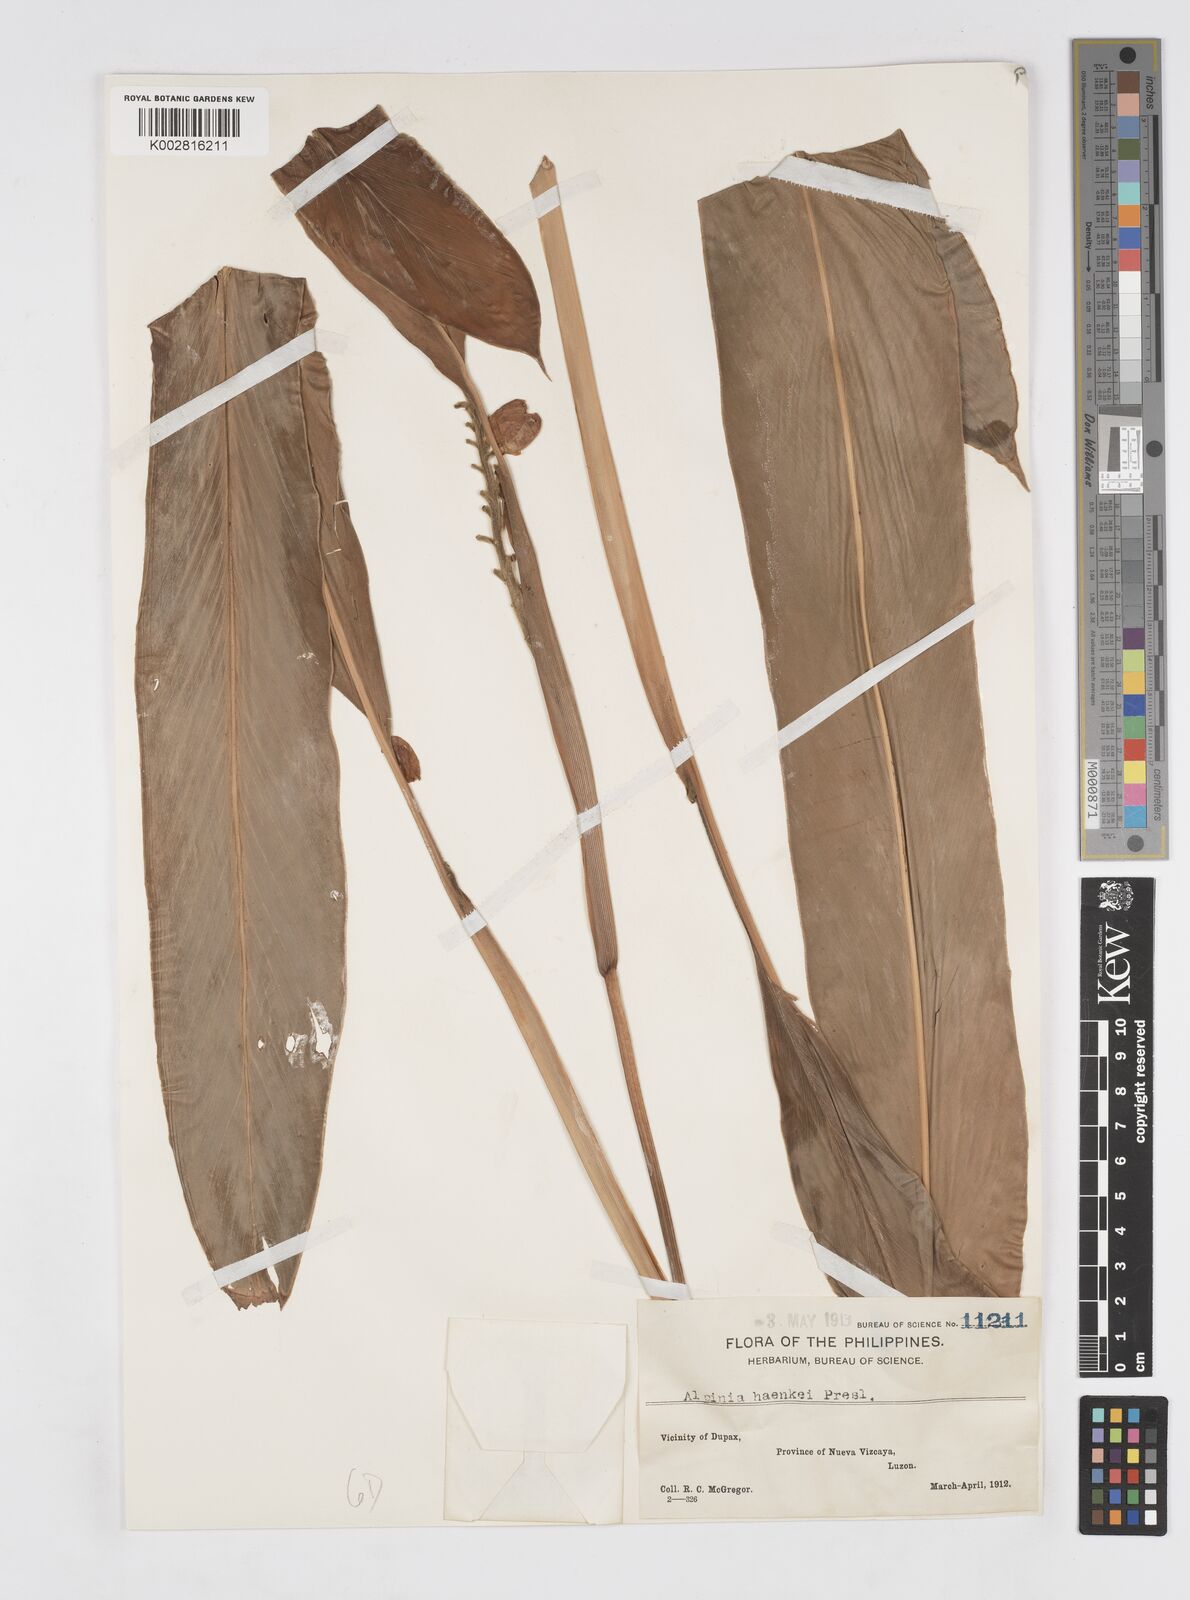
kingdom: Plantae
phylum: Tracheophyta
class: Liliopsida
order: Zingiberales
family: Zingiberaceae
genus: Alpinia
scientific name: Alpinia haenkei
